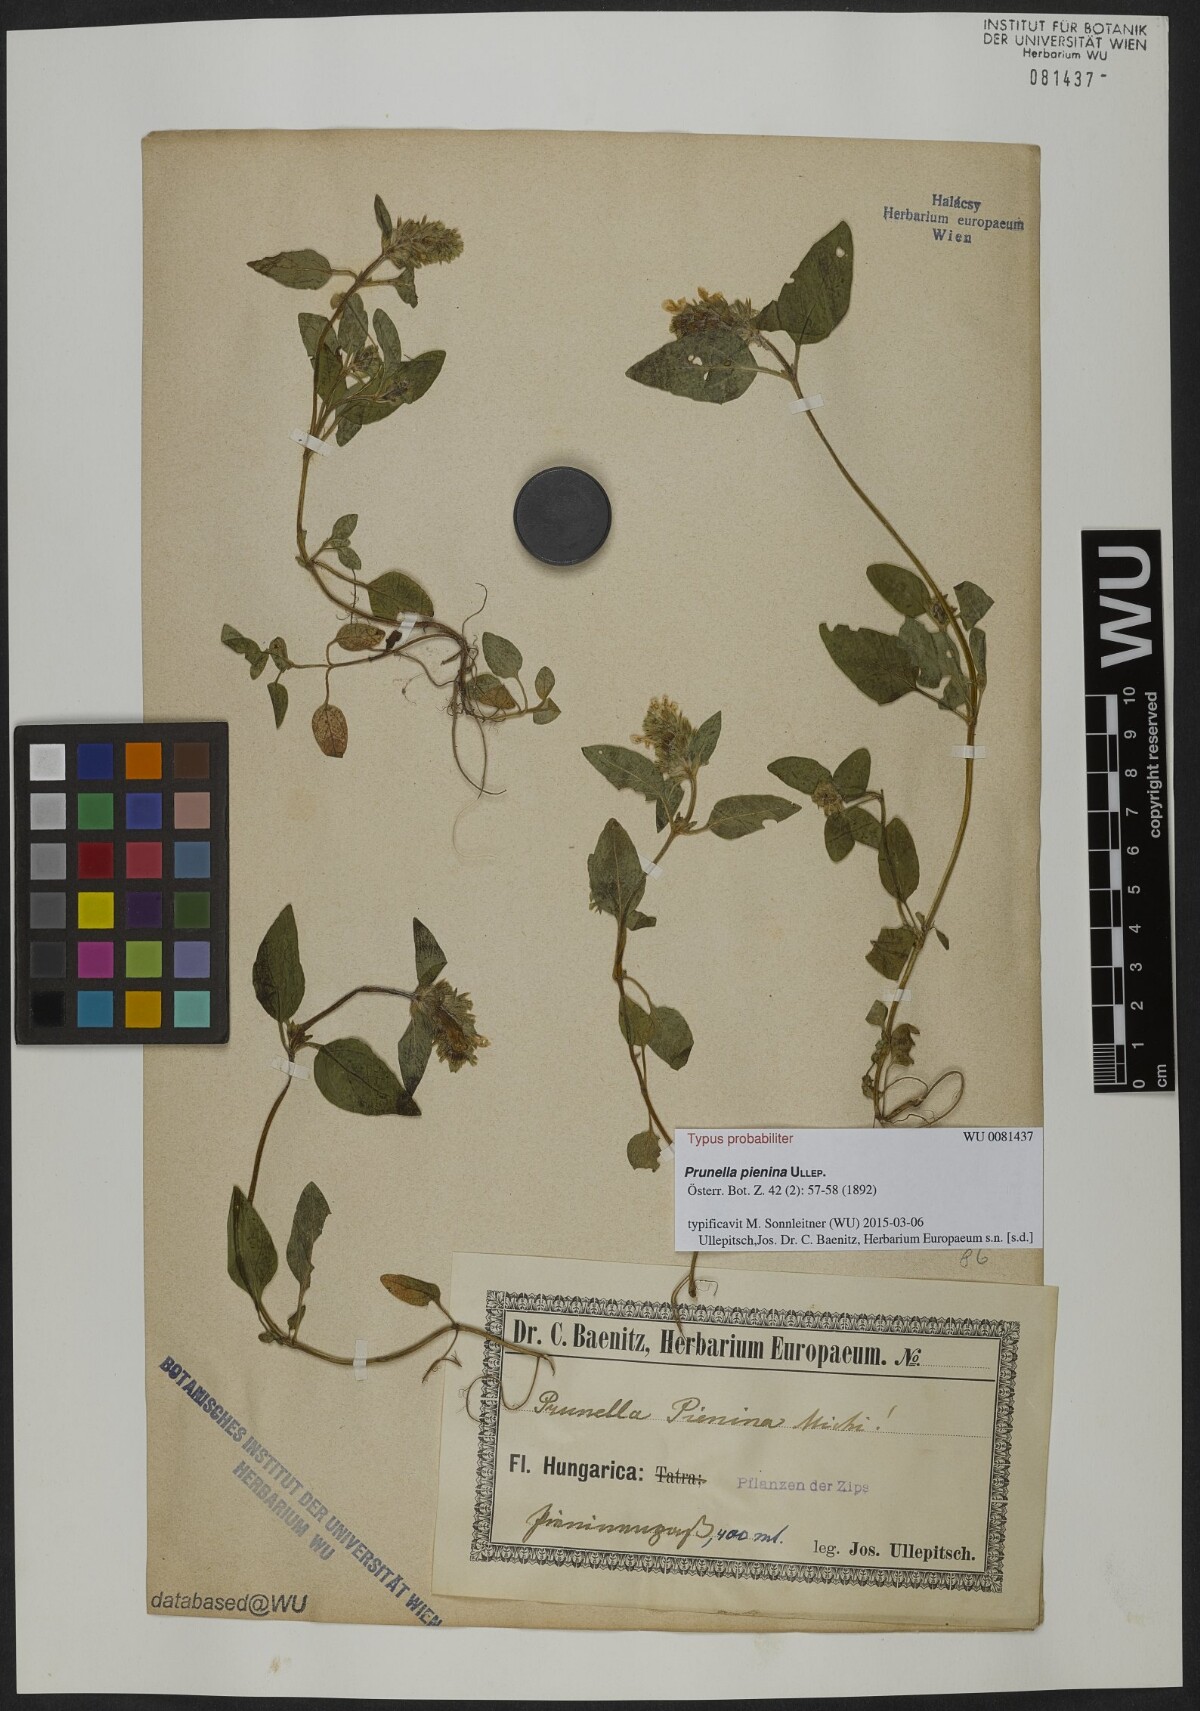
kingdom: Plantae
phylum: Tracheophyta
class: Magnoliopsida
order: Lamiales
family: Lamiaceae
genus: Prunella
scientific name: Prunella pienina
